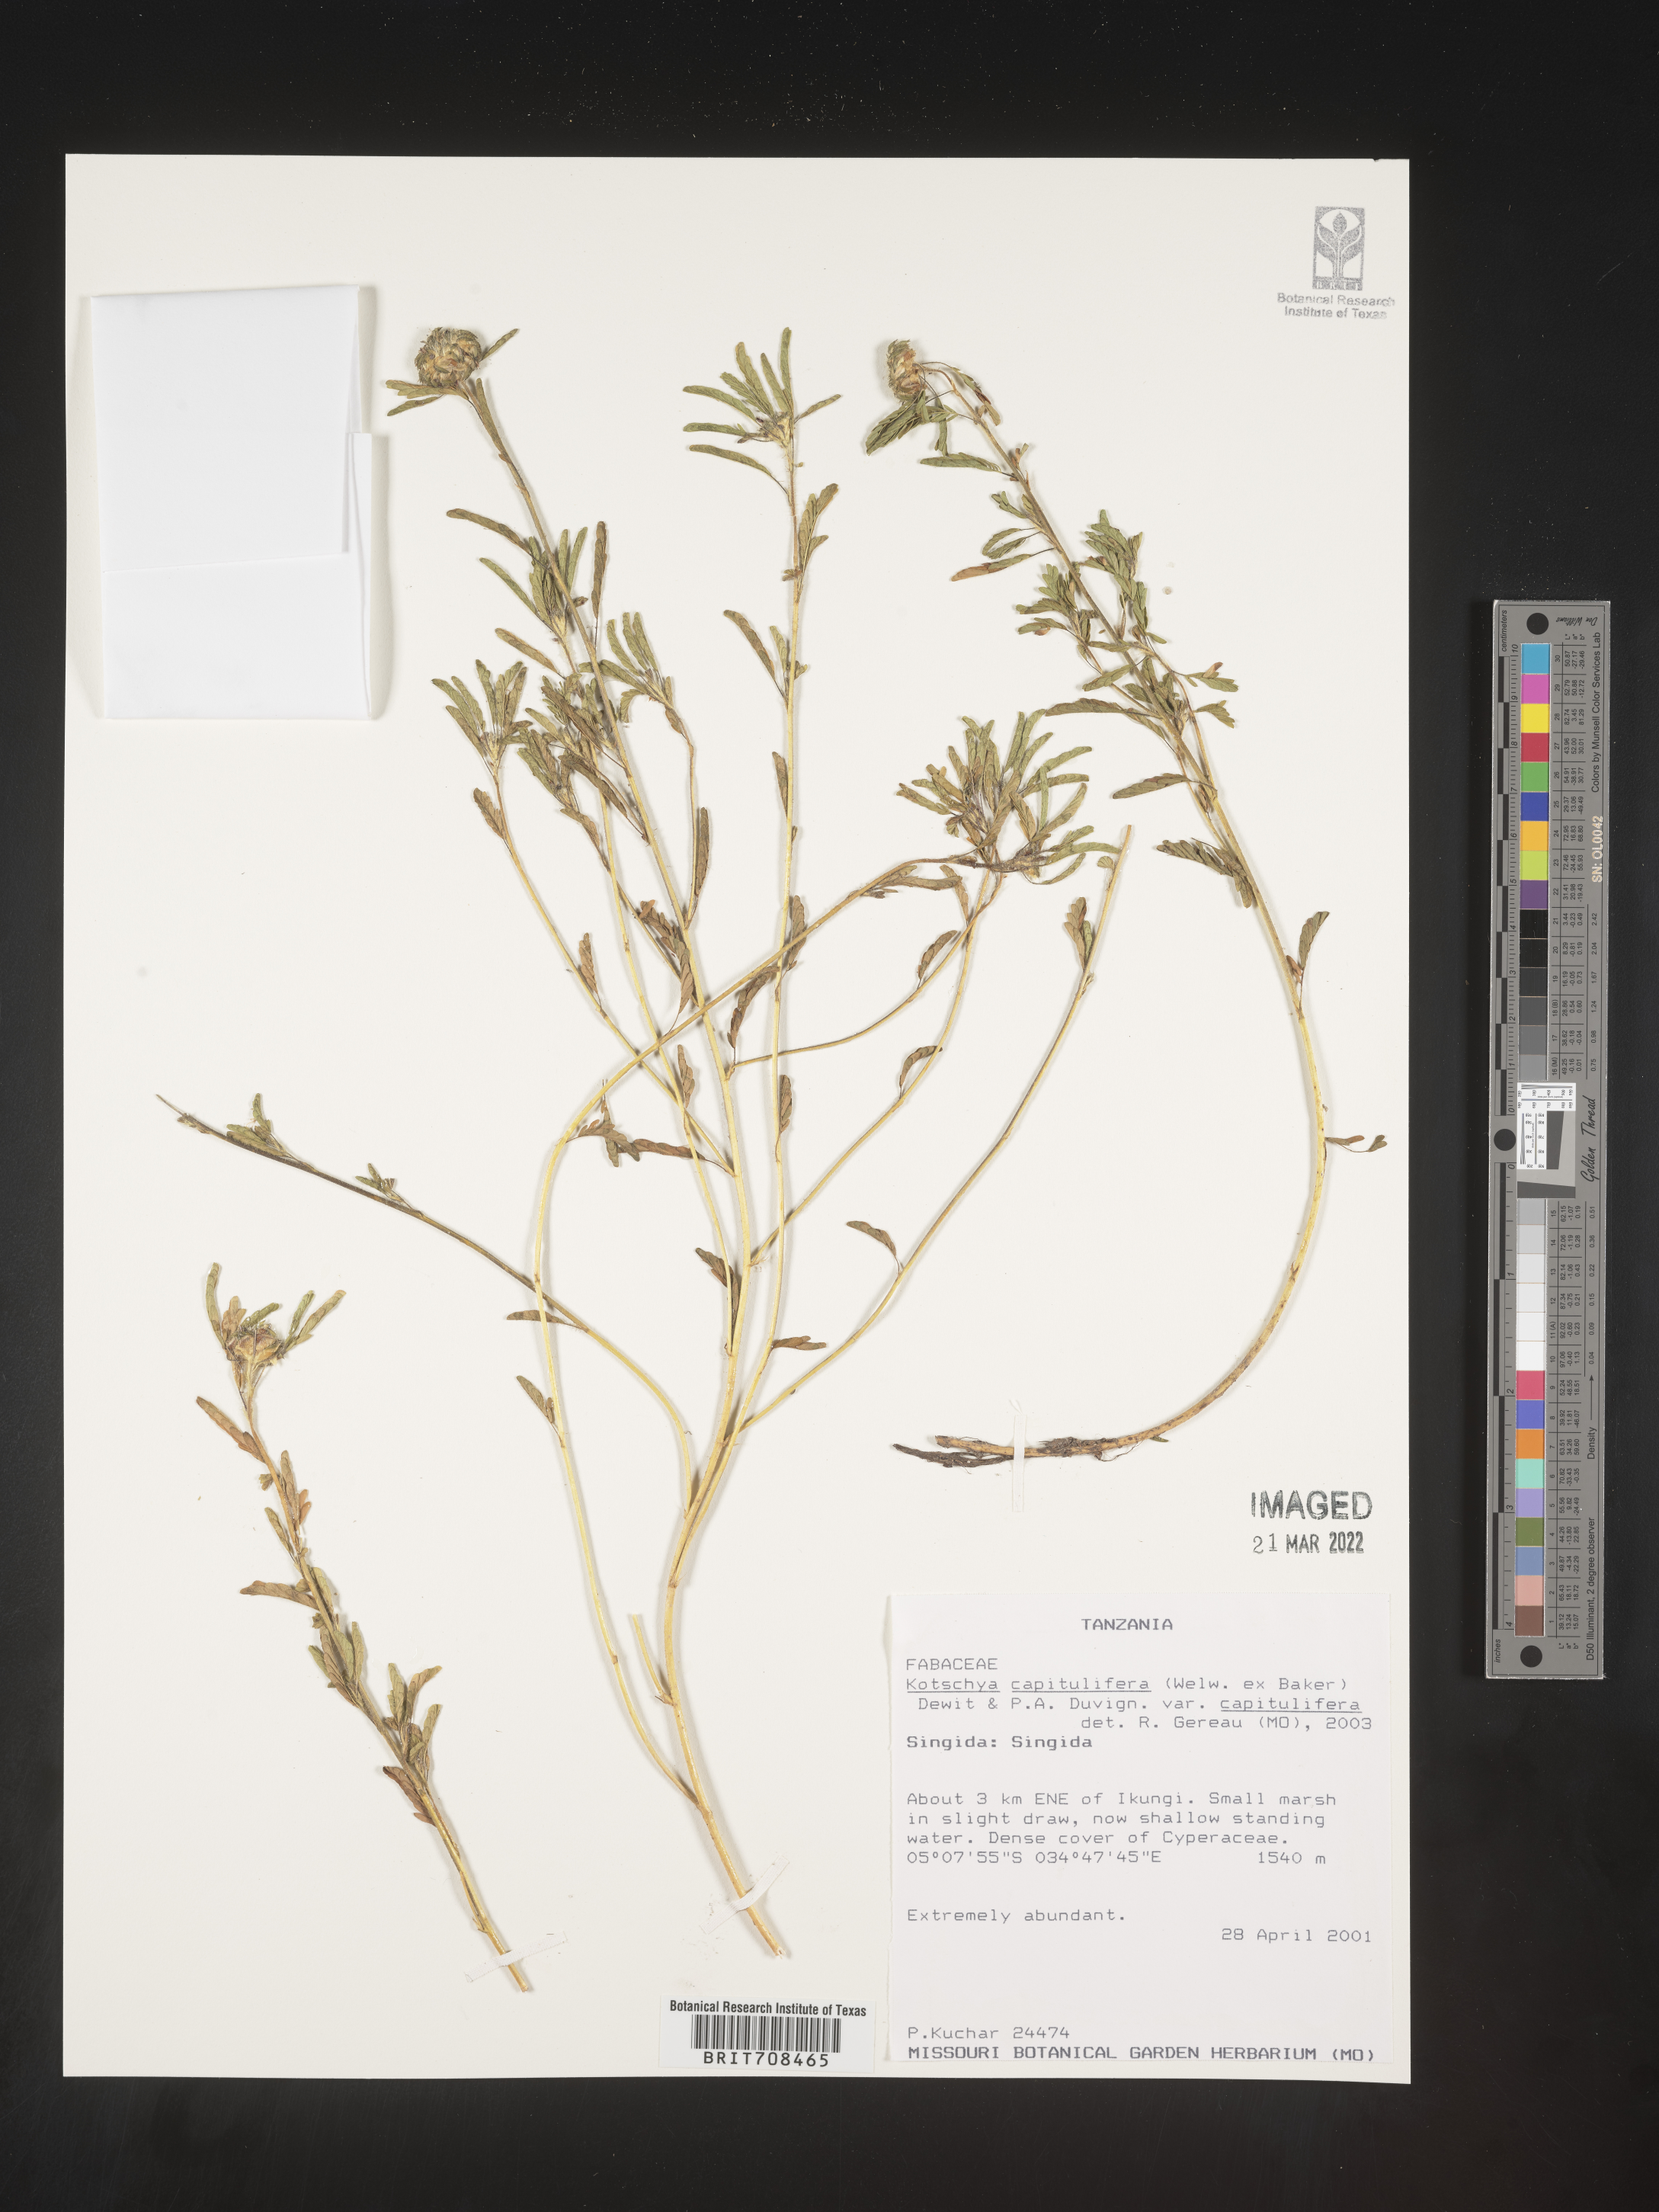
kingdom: Plantae
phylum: Tracheophyta
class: Magnoliopsida
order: Fabales
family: Fabaceae
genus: Kotschya
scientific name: Kotschya
